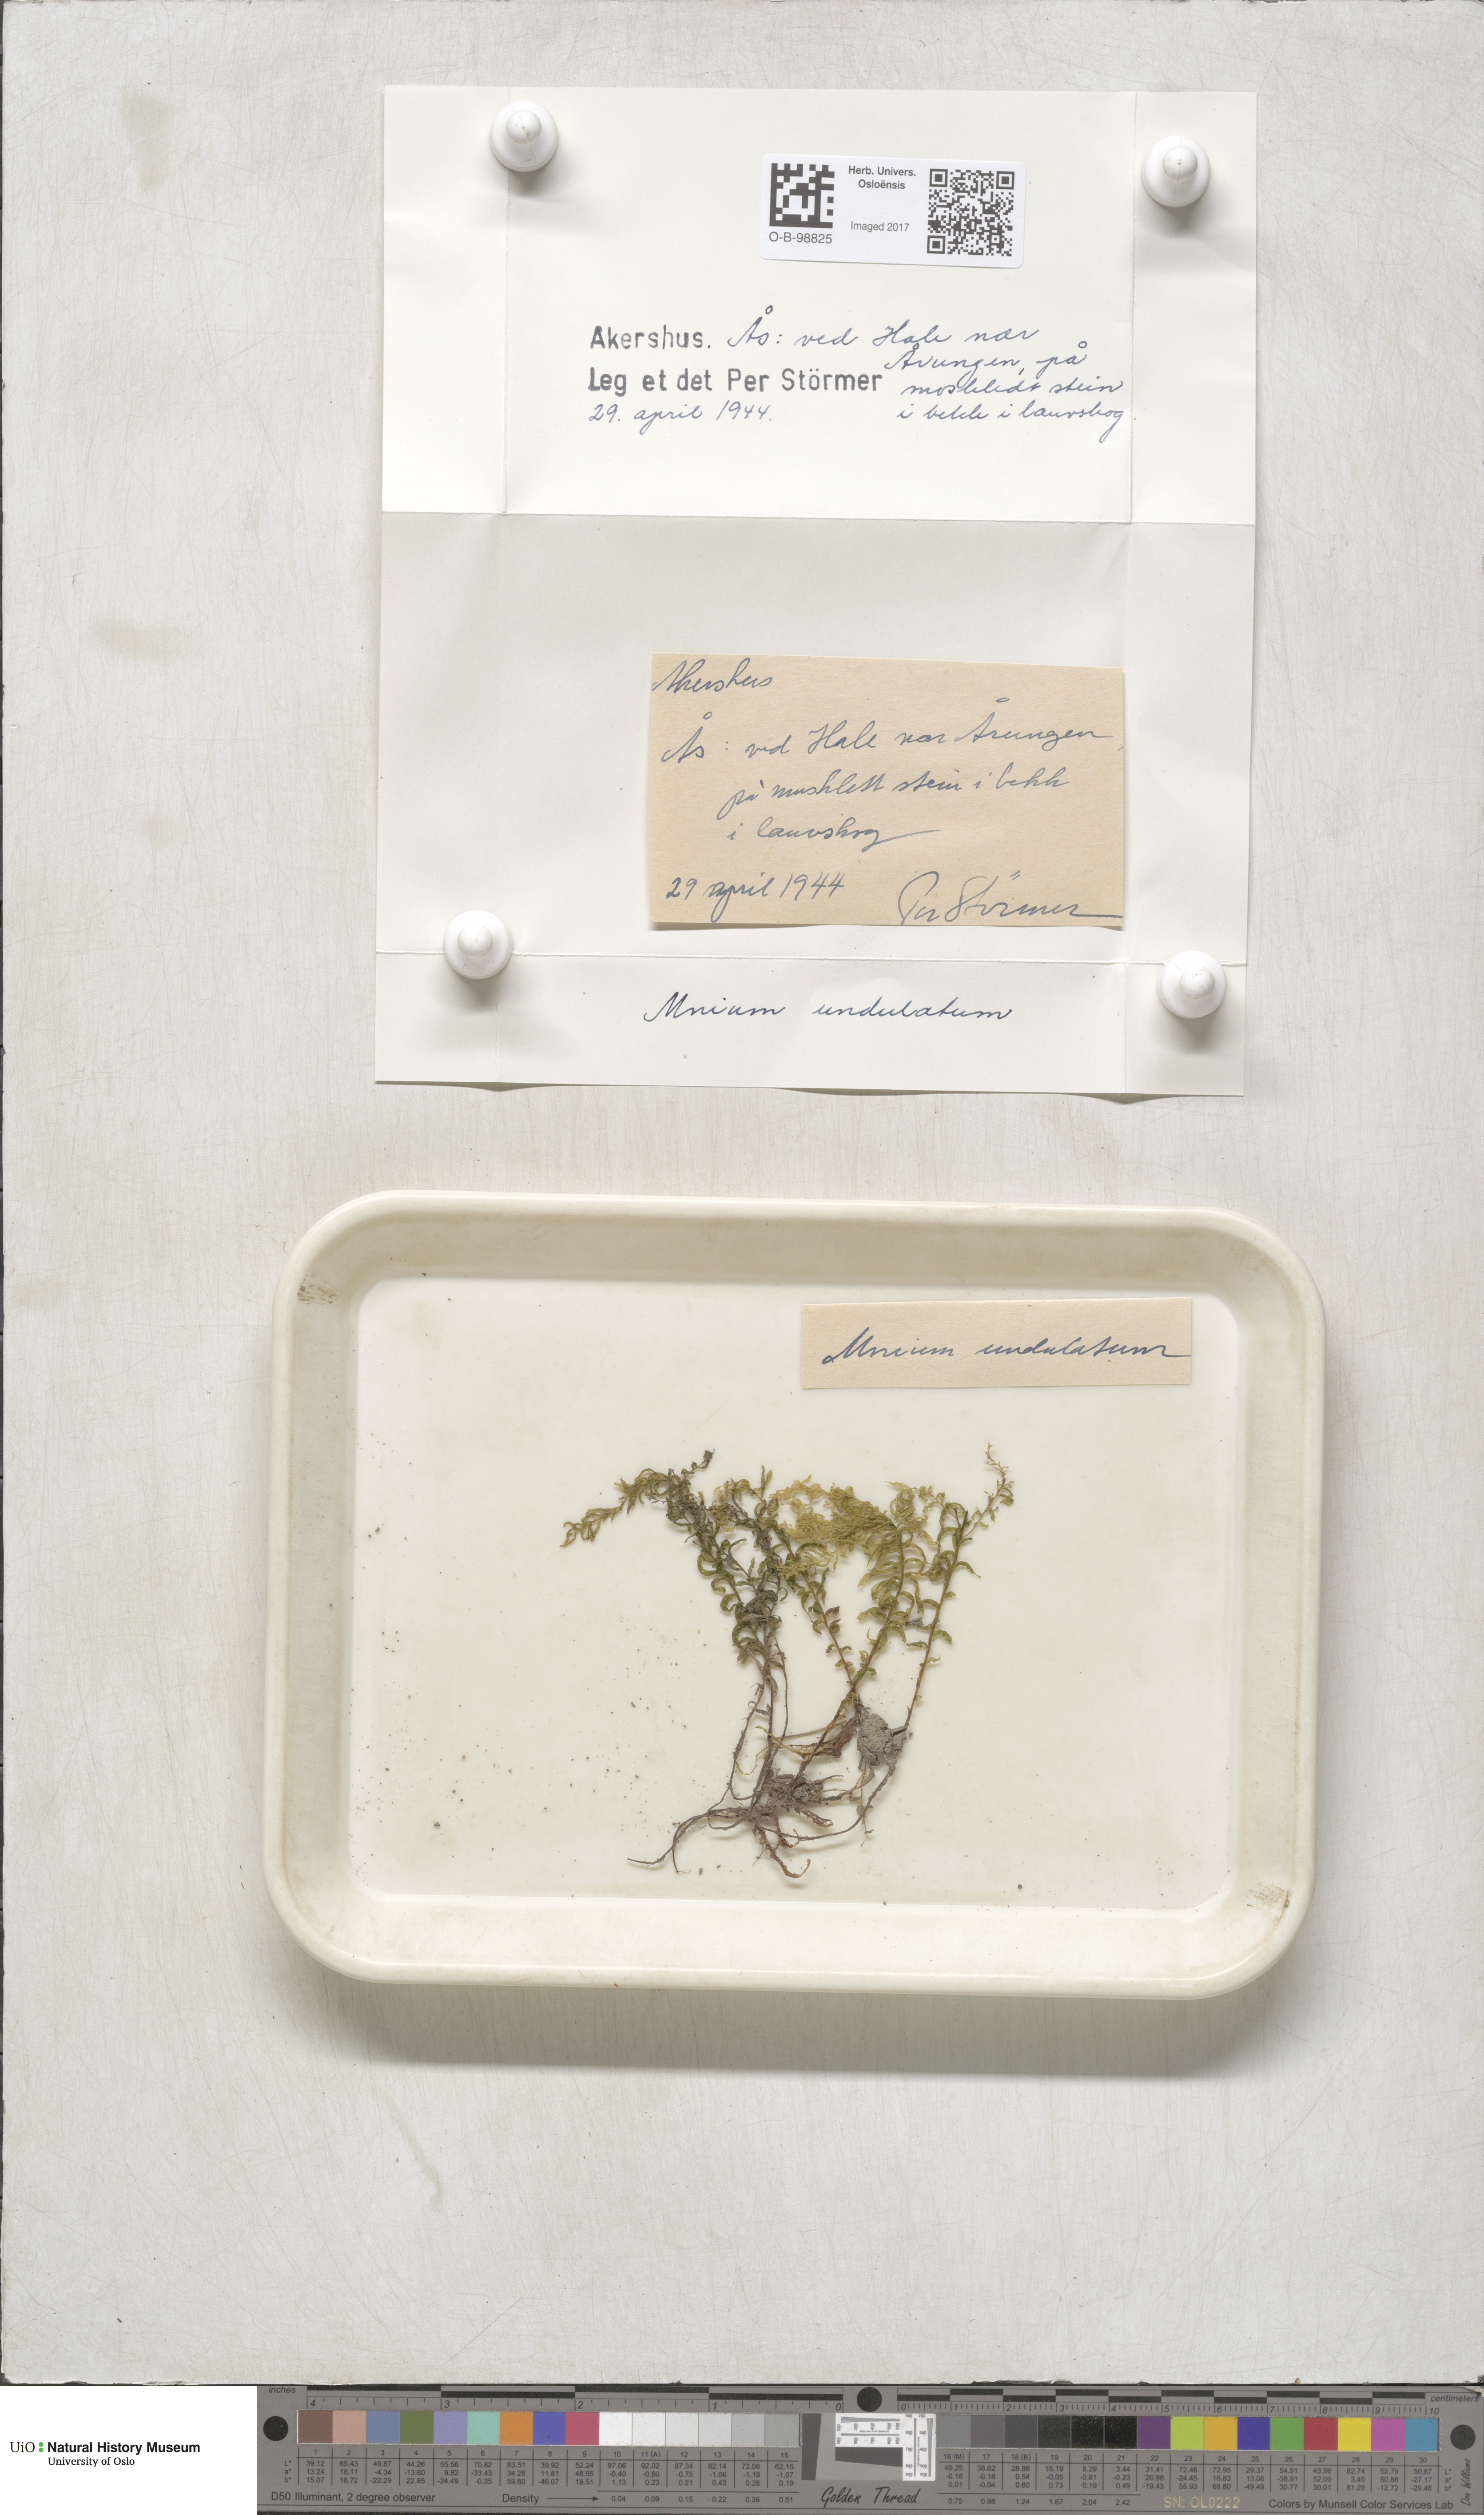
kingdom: Plantae
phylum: Bryophyta
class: Bryopsida
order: Bryales
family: Mniaceae
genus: Plagiomnium
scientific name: Plagiomnium undulatum
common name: Hart's-tongue thyme-moss
